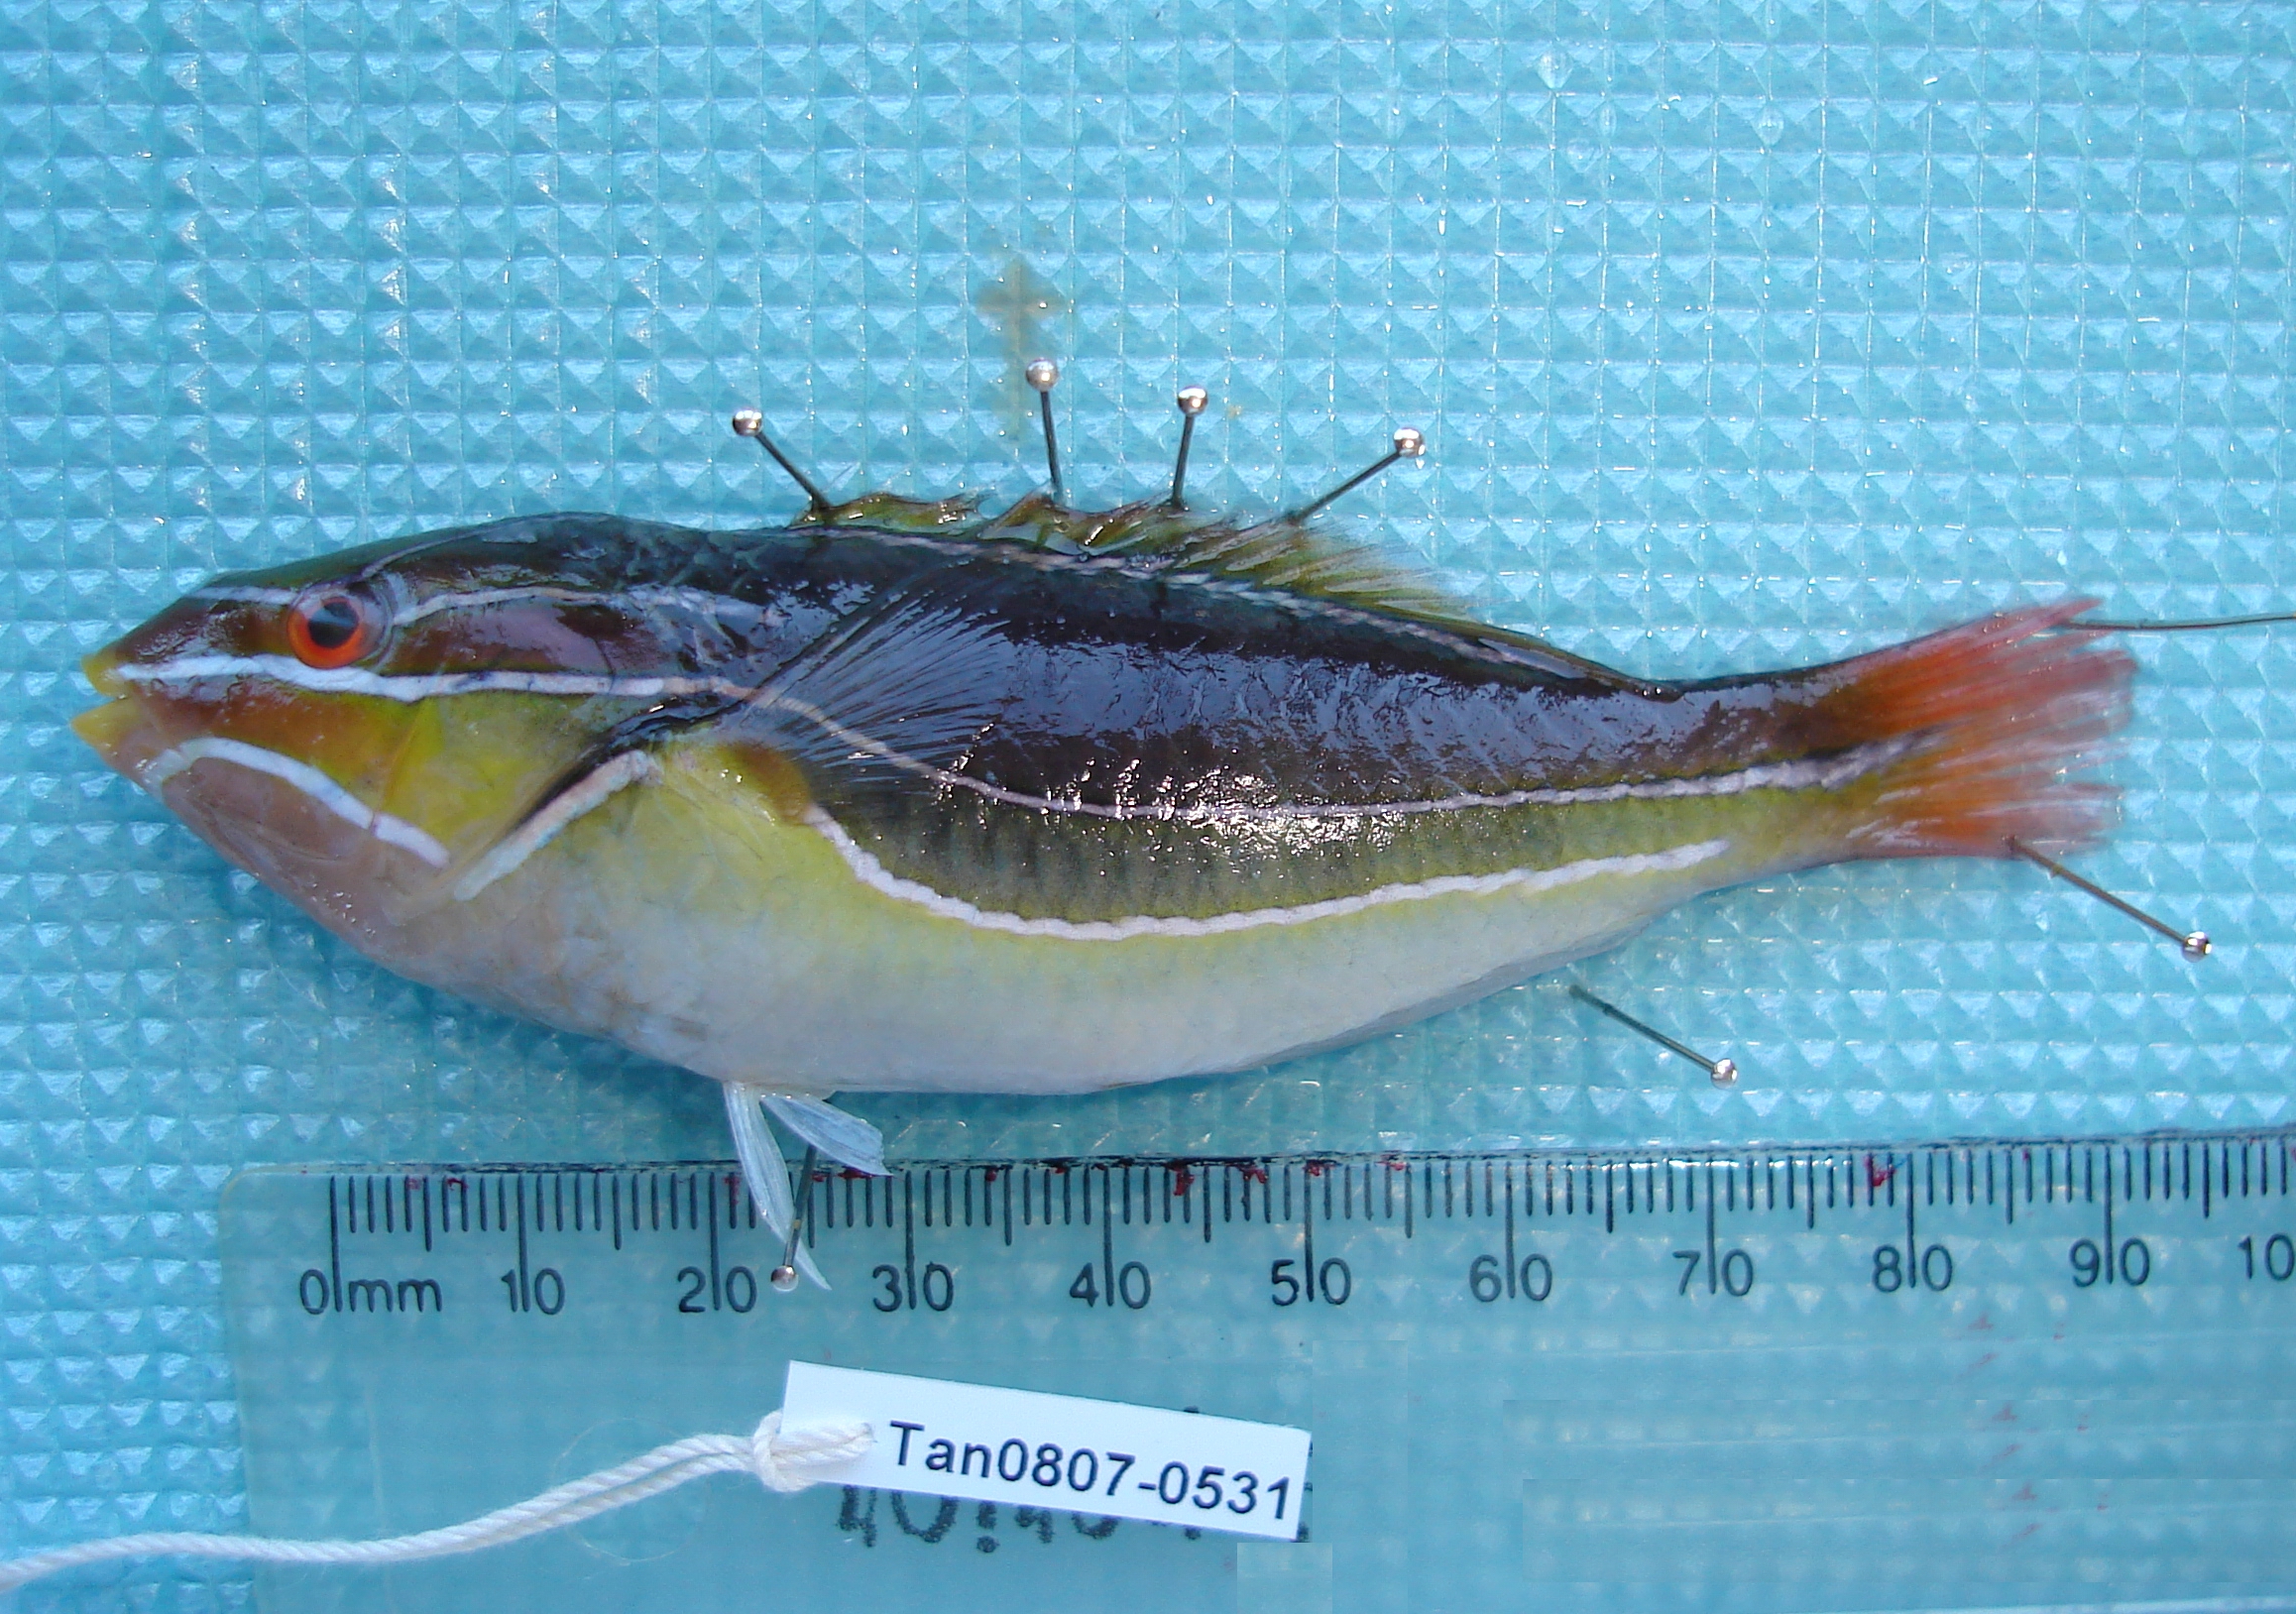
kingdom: Animalia
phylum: Chordata
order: Perciformes
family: Labridae
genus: Stethojulis
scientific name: Stethojulis albovittata
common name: Bluelined wrasse
